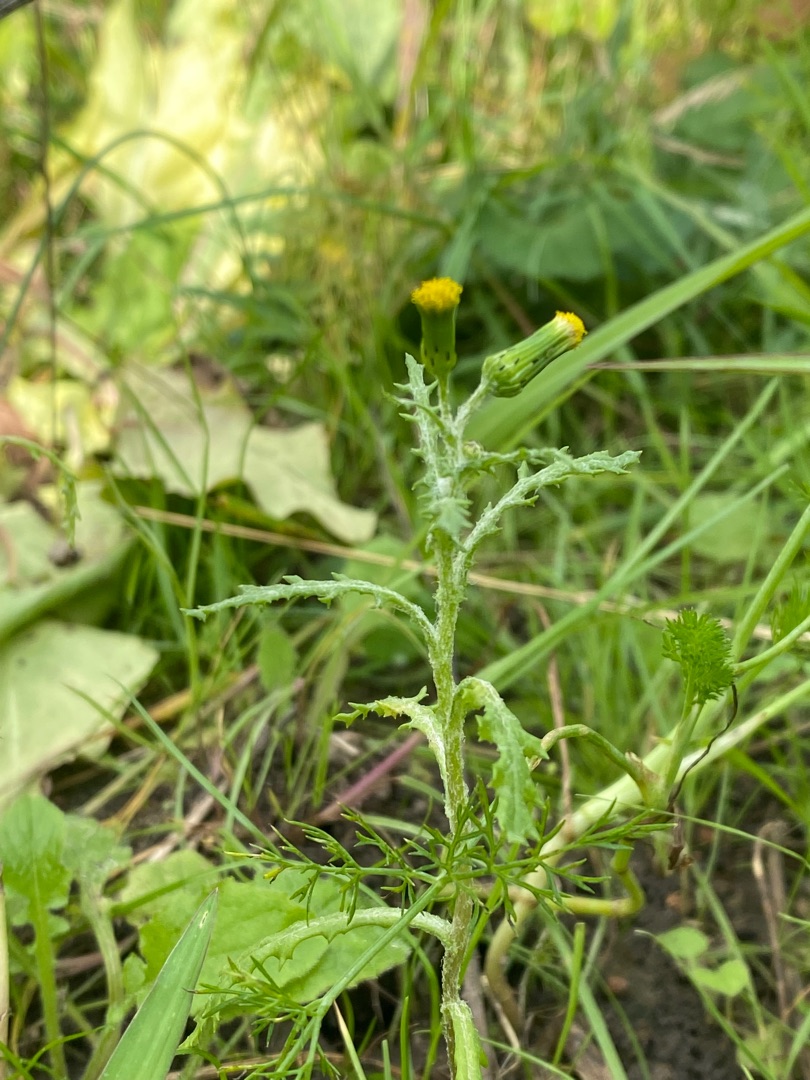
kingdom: Plantae
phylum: Tracheophyta
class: Magnoliopsida
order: Asterales
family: Asteraceae
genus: Senecio
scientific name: Senecio vulgaris
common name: Almindelig brandbæger
